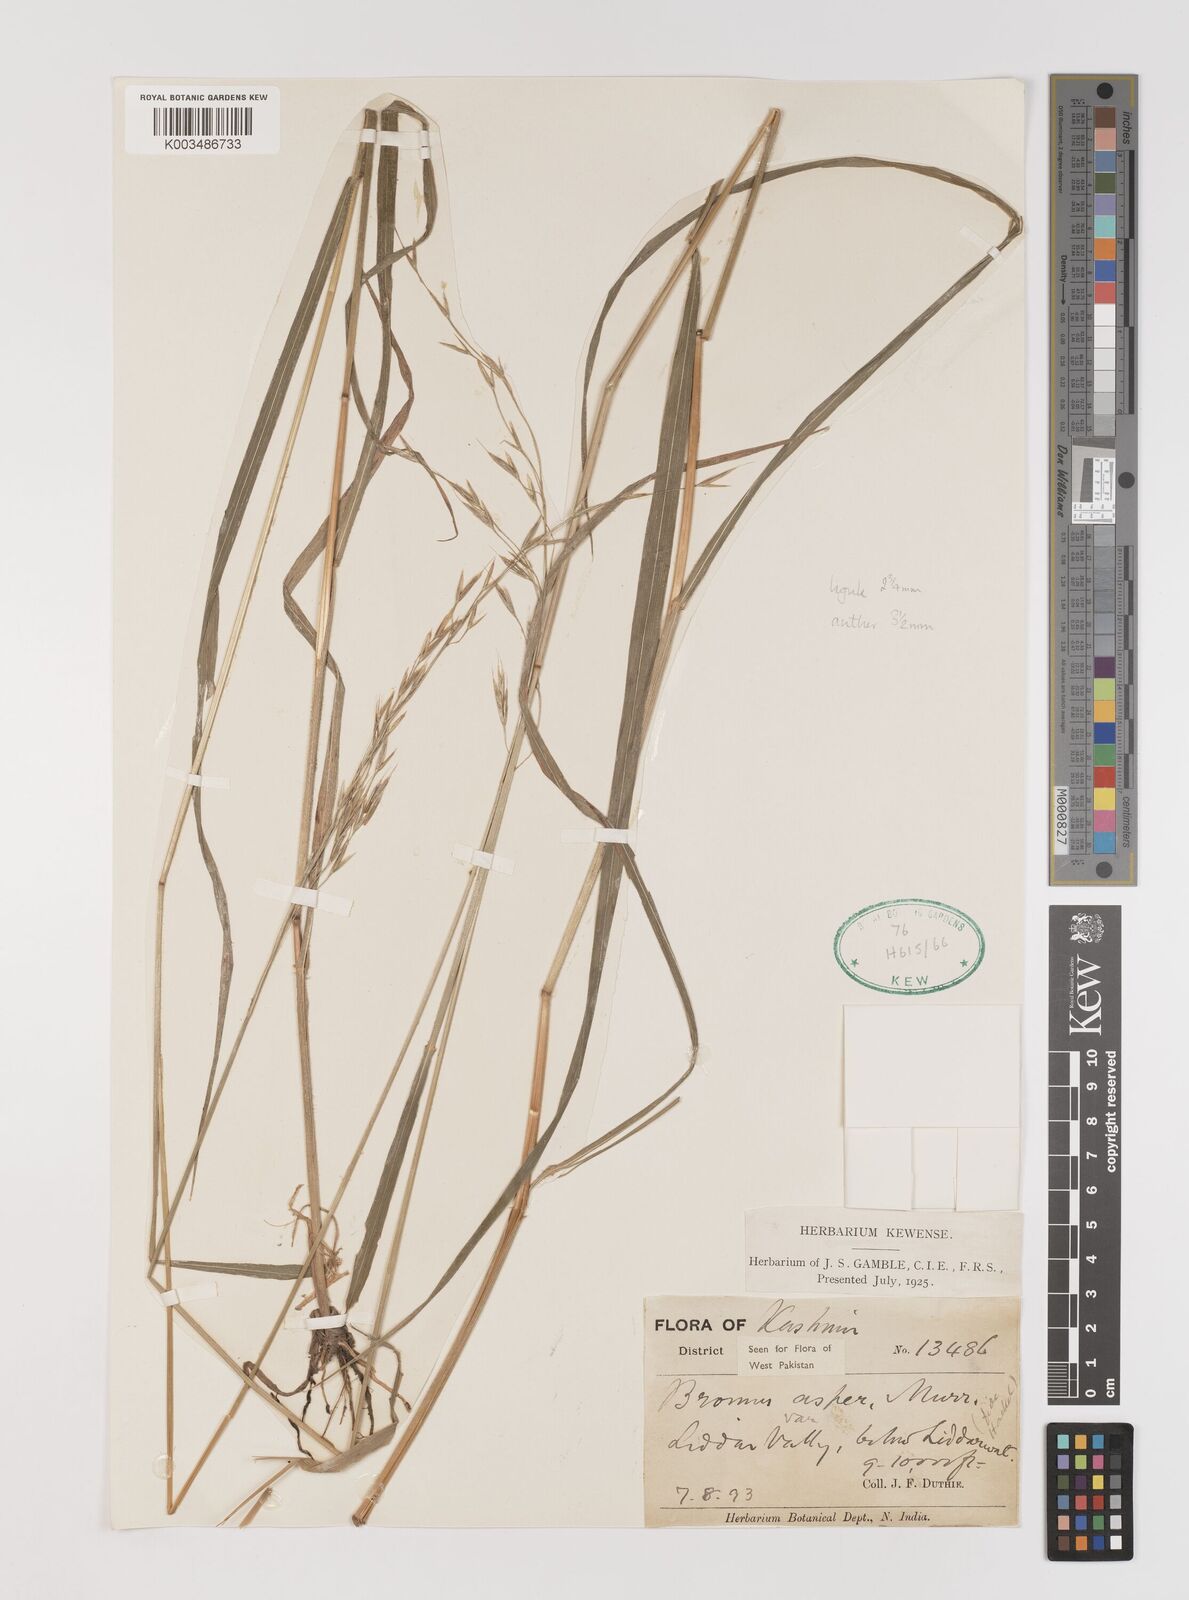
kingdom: Plantae
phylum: Tracheophyta
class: Liliopsida
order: Poales
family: Poaceae
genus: Brachypodium
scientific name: Brachypodium retusum
